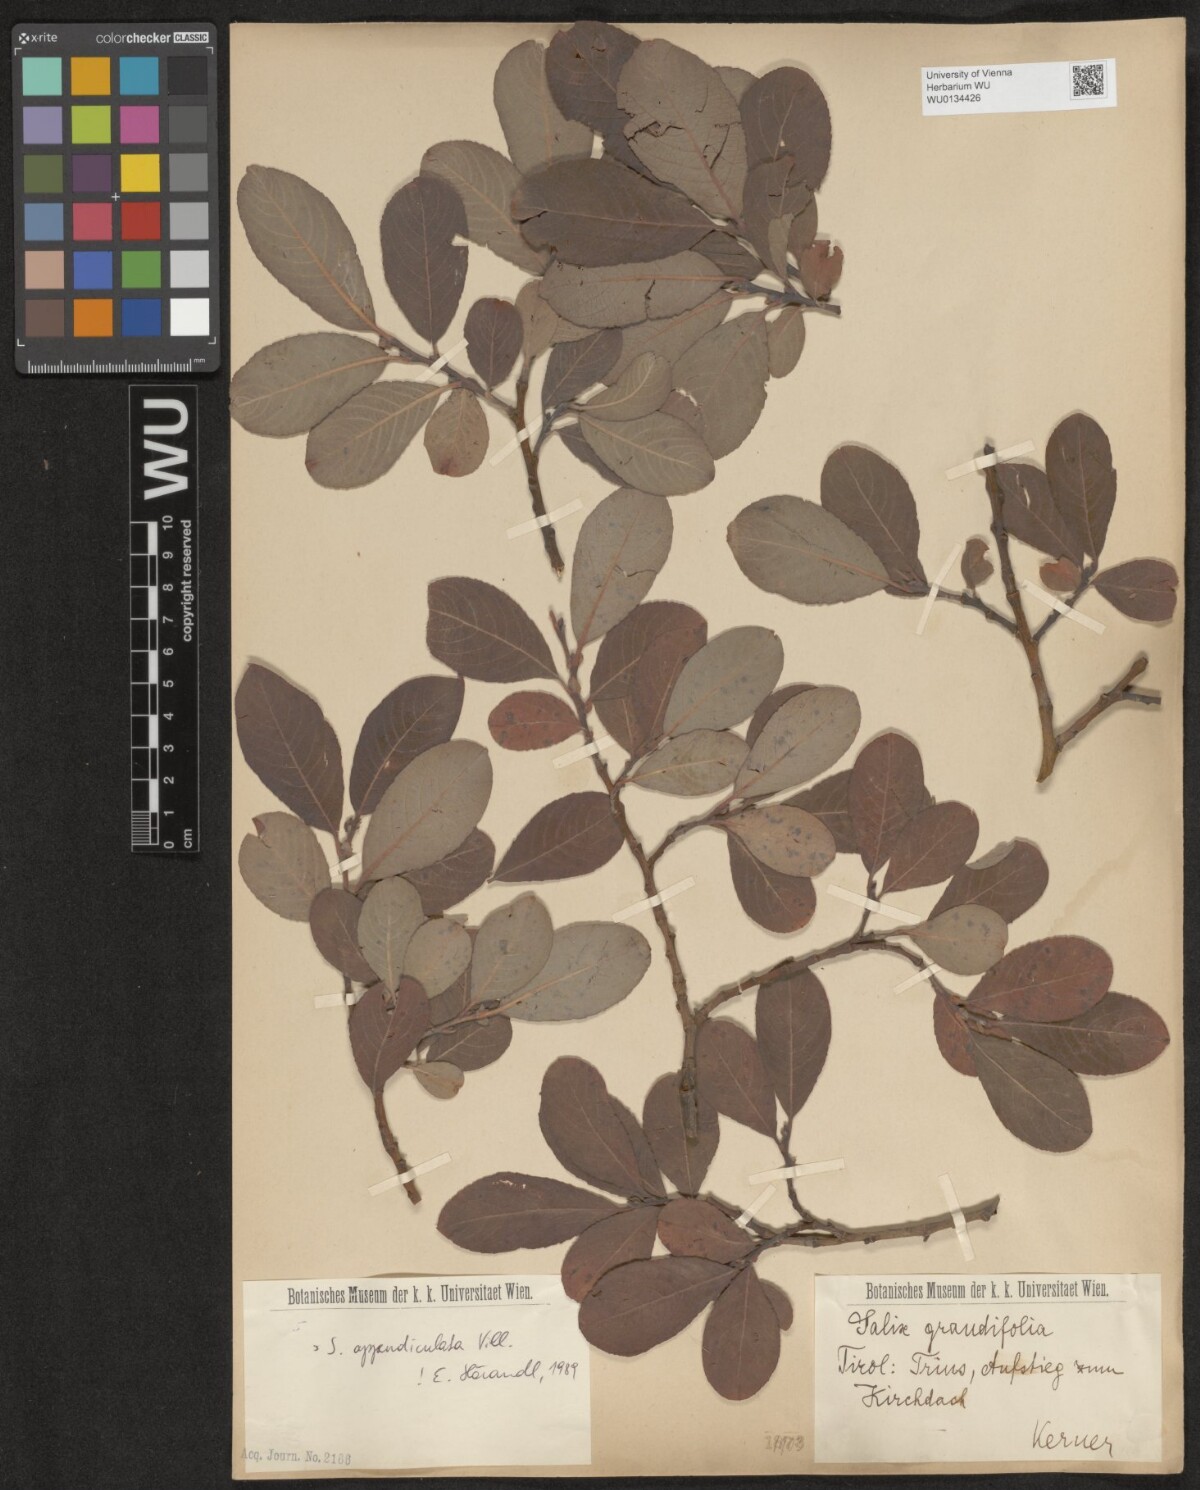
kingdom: Plantae
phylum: Tracheophyta
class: Magnoliopsida
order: Malpighiales
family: Salicaceae
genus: Salix
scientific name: Salix appendiculata
